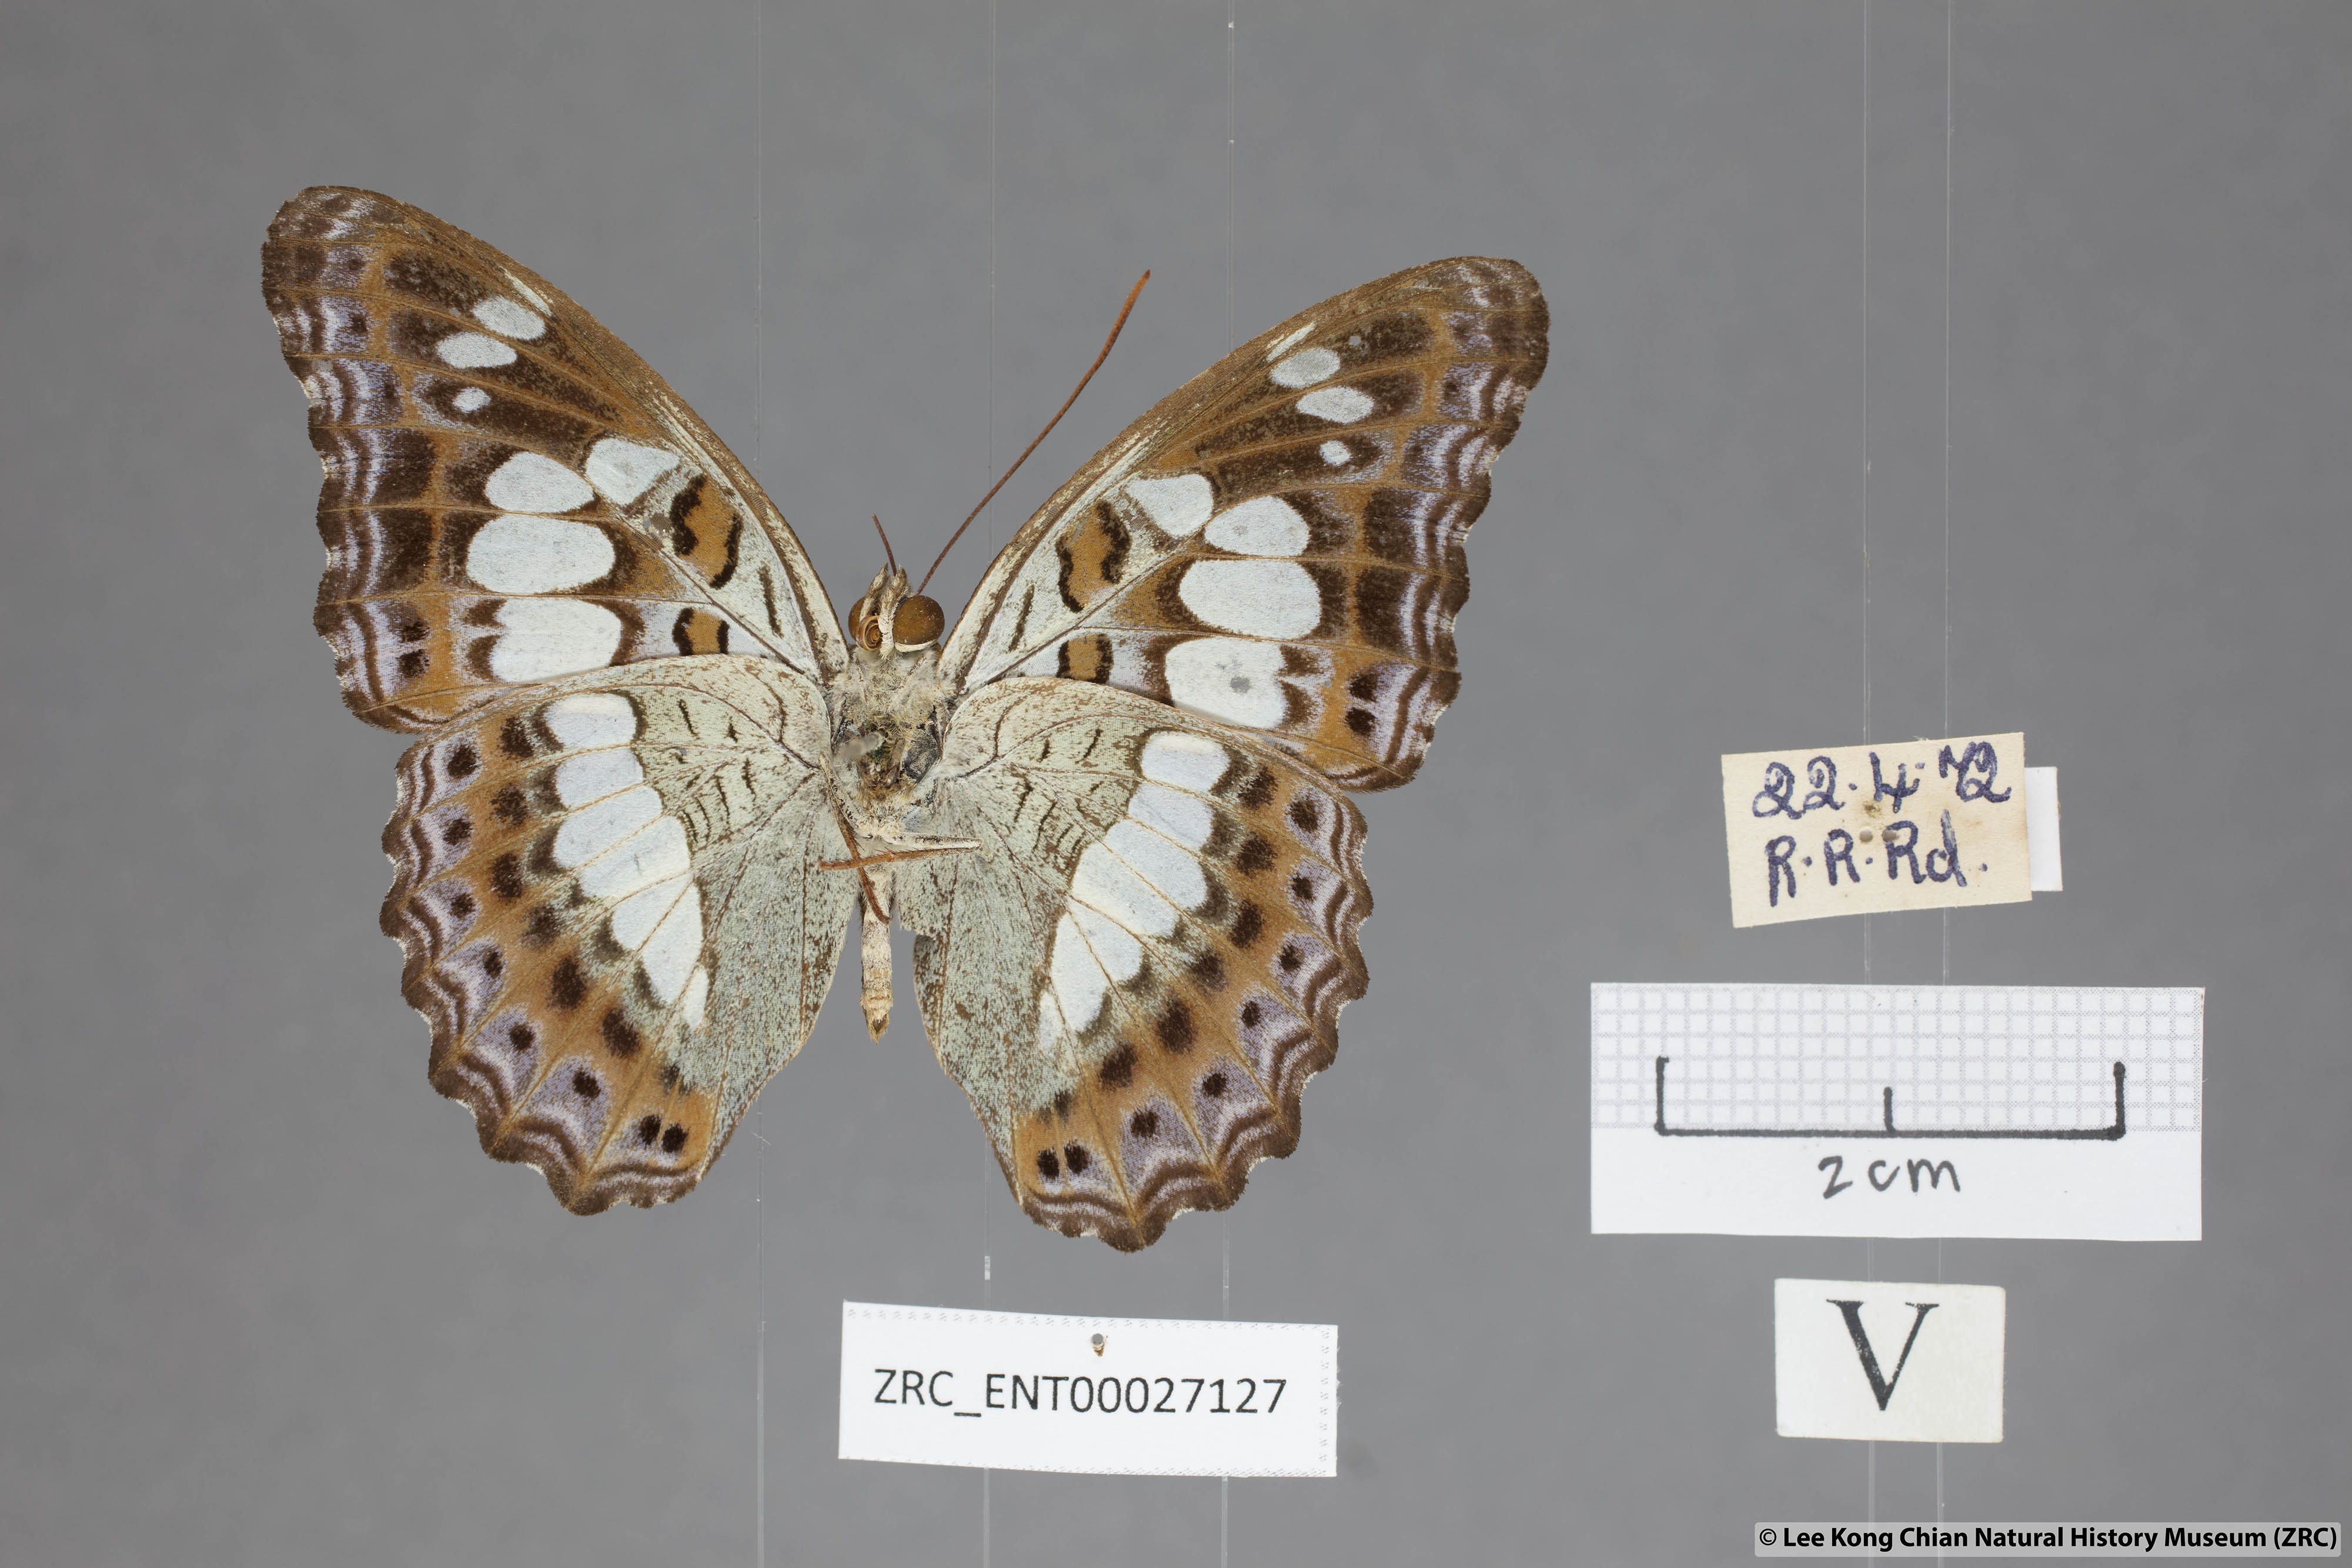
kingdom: Animalia
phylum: Arthropoda
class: Insecta
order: Lepidoptera
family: Nymphalidae
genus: Limenitis
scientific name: Limenitis Moduza procris
